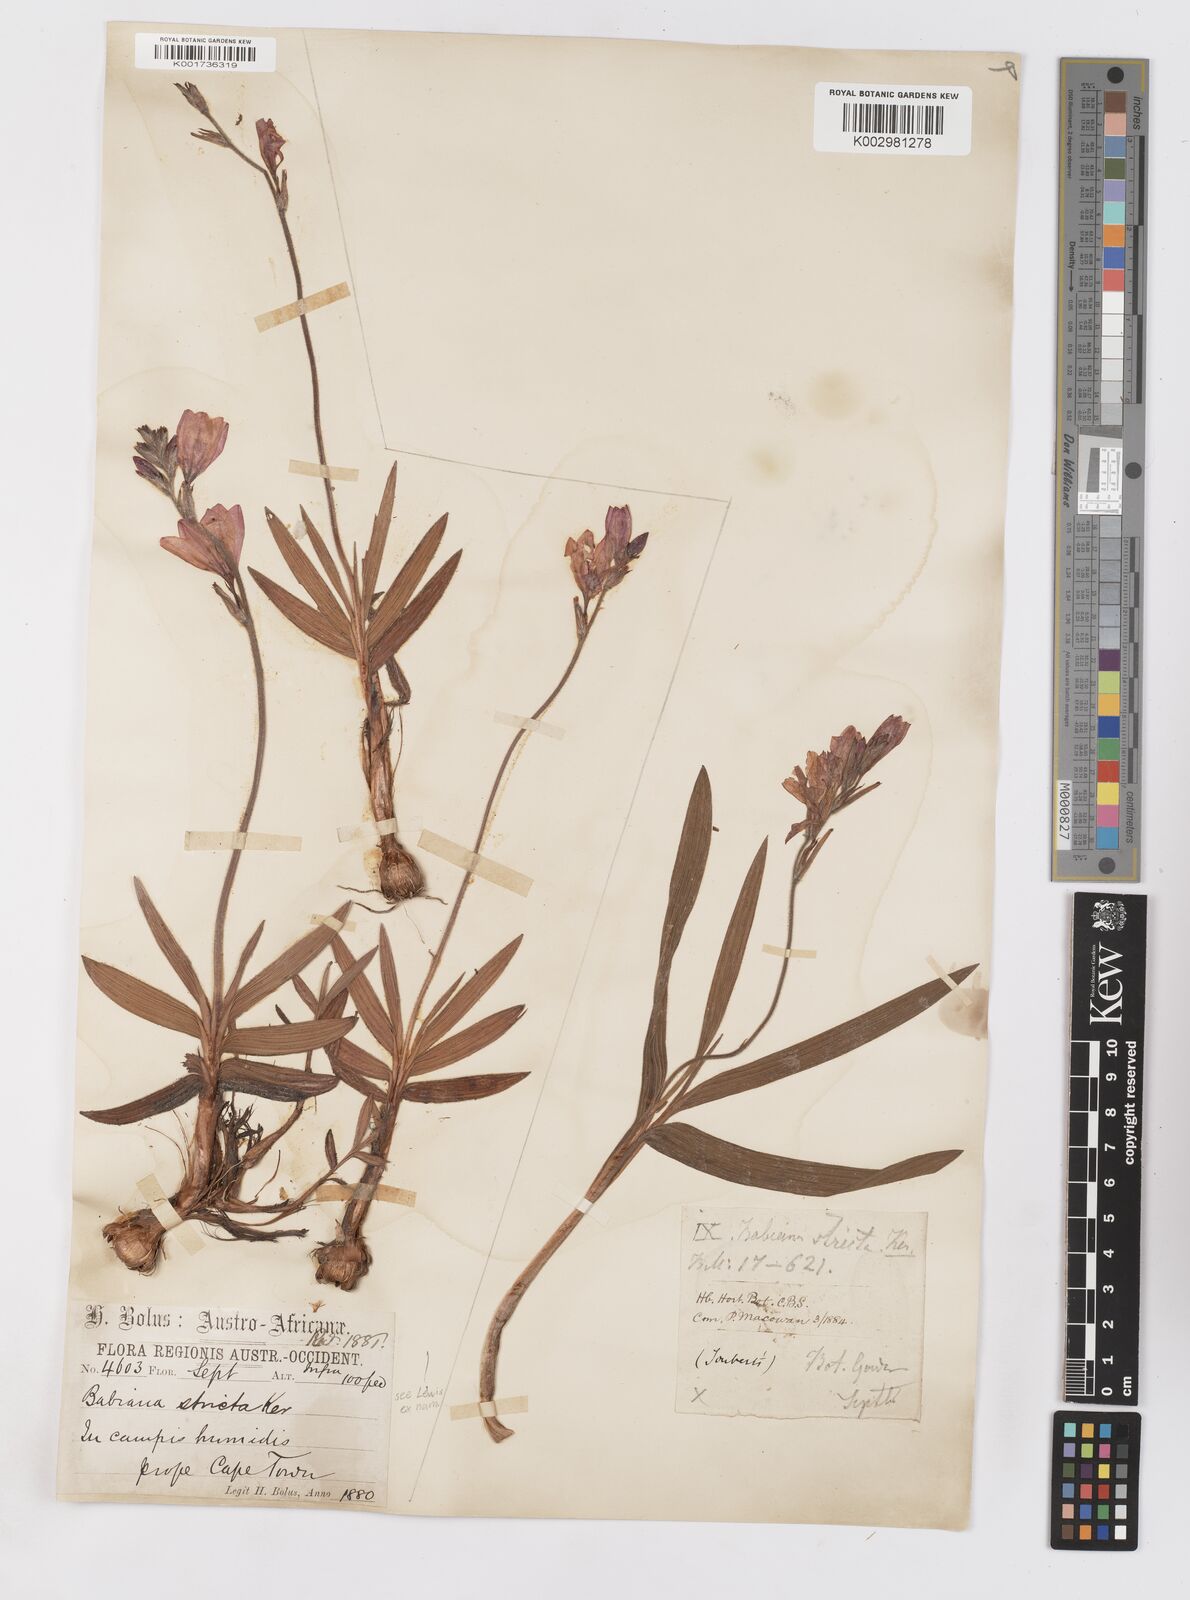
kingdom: Plantae
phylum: Tracheophyta
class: Liliopsida
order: Asparagales
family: Iridaceae
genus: Babiana
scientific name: Babiana regia
